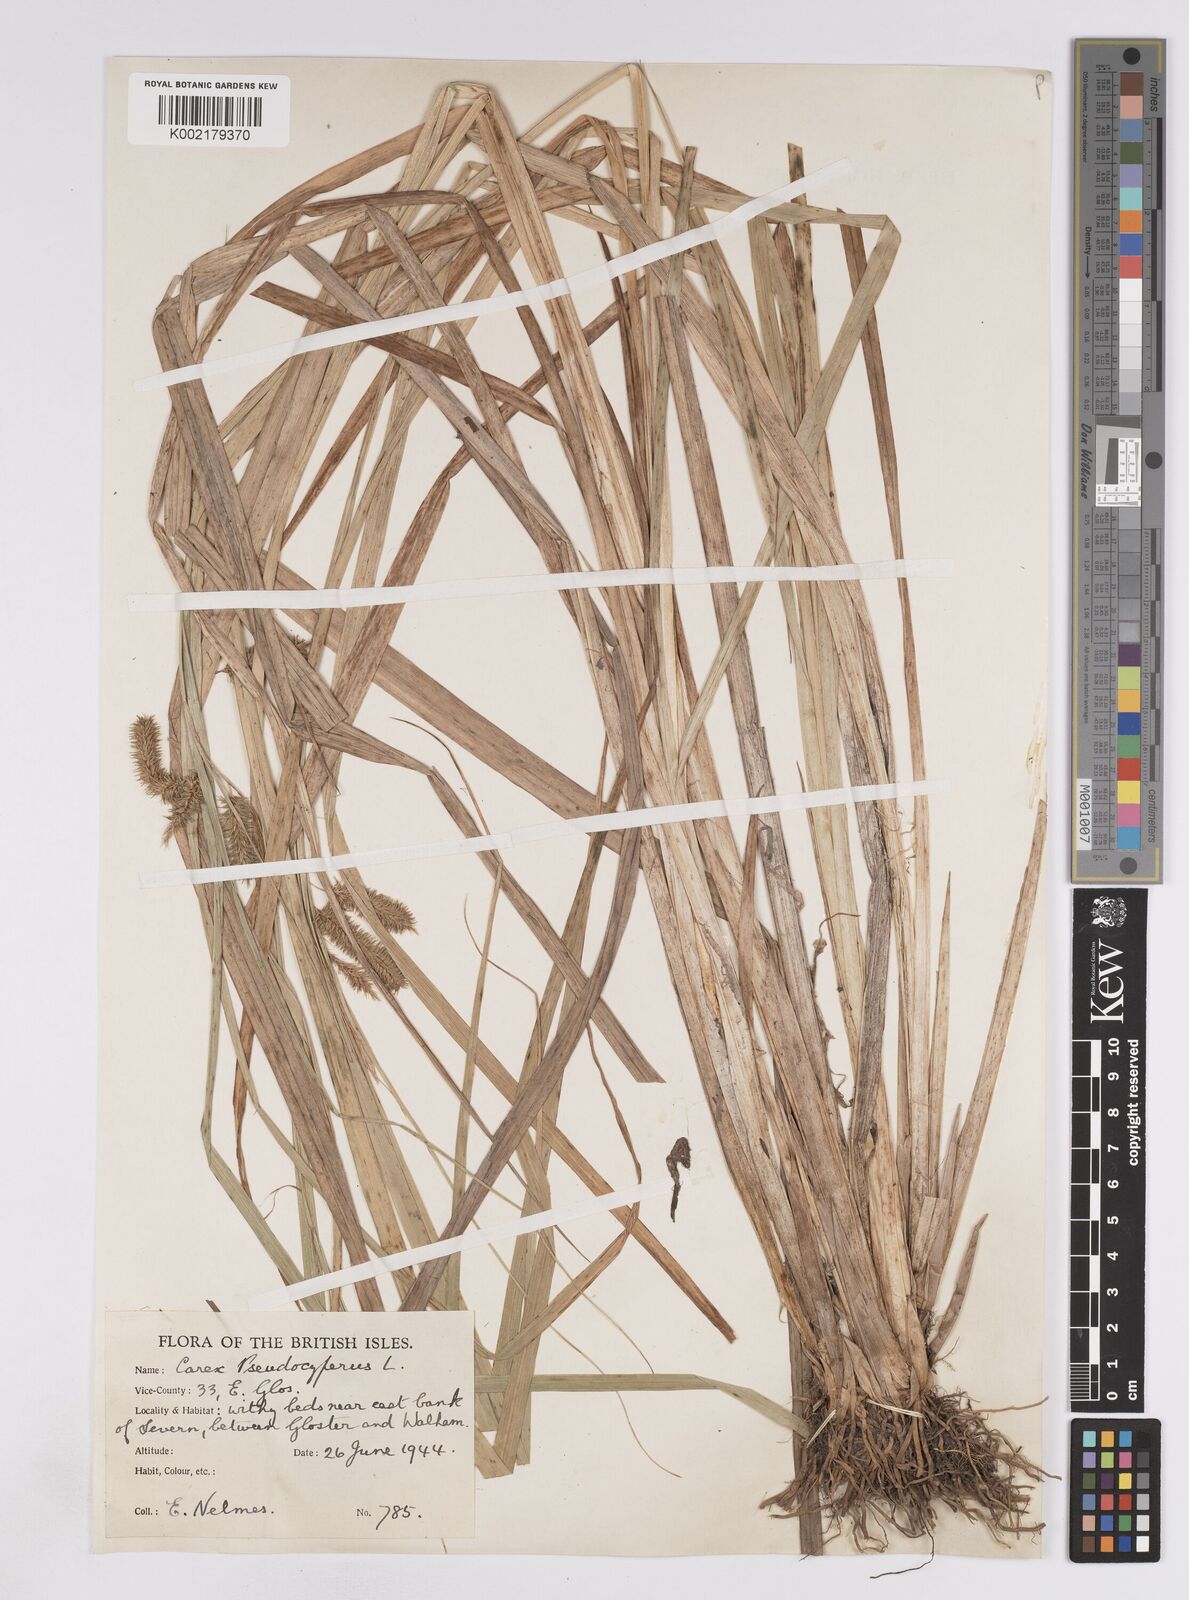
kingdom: Plantae
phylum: Tracheophyta
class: Liliopsida
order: Poales
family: Cyperaceae
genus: Carex
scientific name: Carex pseudocyperus
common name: Cyperus sedge
